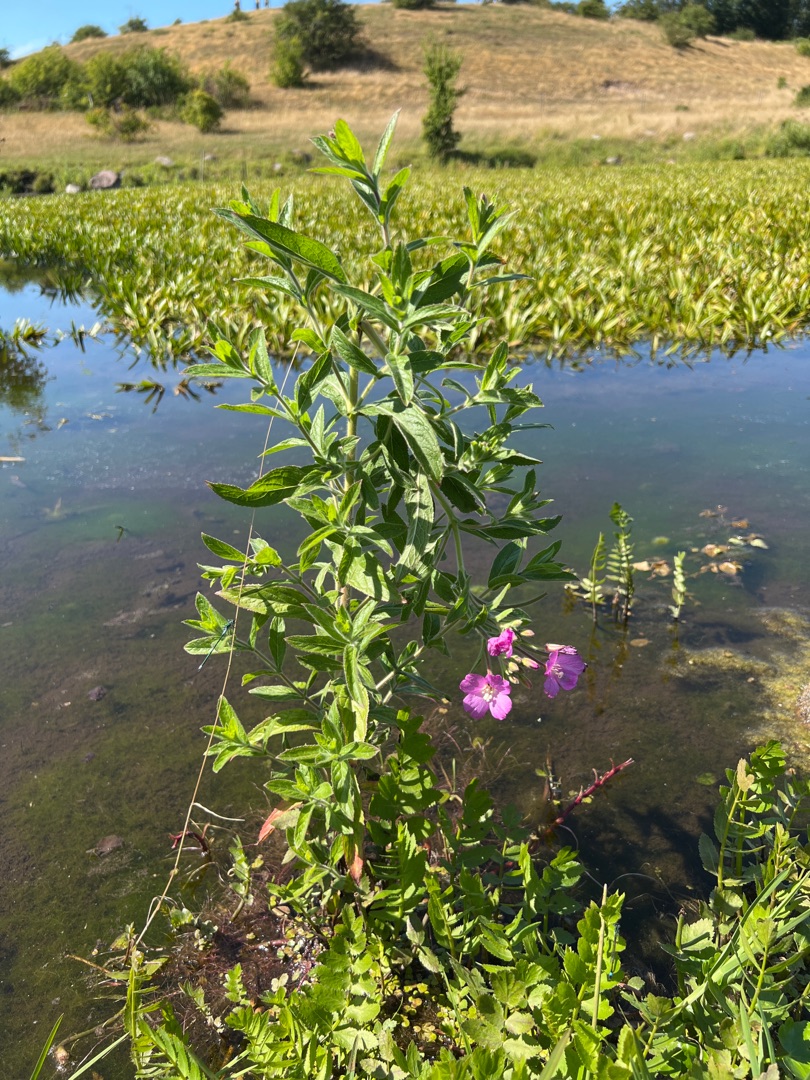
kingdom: Plantae
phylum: Tracheophyta
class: Magnoliopsida
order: Myrtales
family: Onagraceae
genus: Epilobium
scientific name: Epilobium hirsutum
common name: Lådden dueurt
